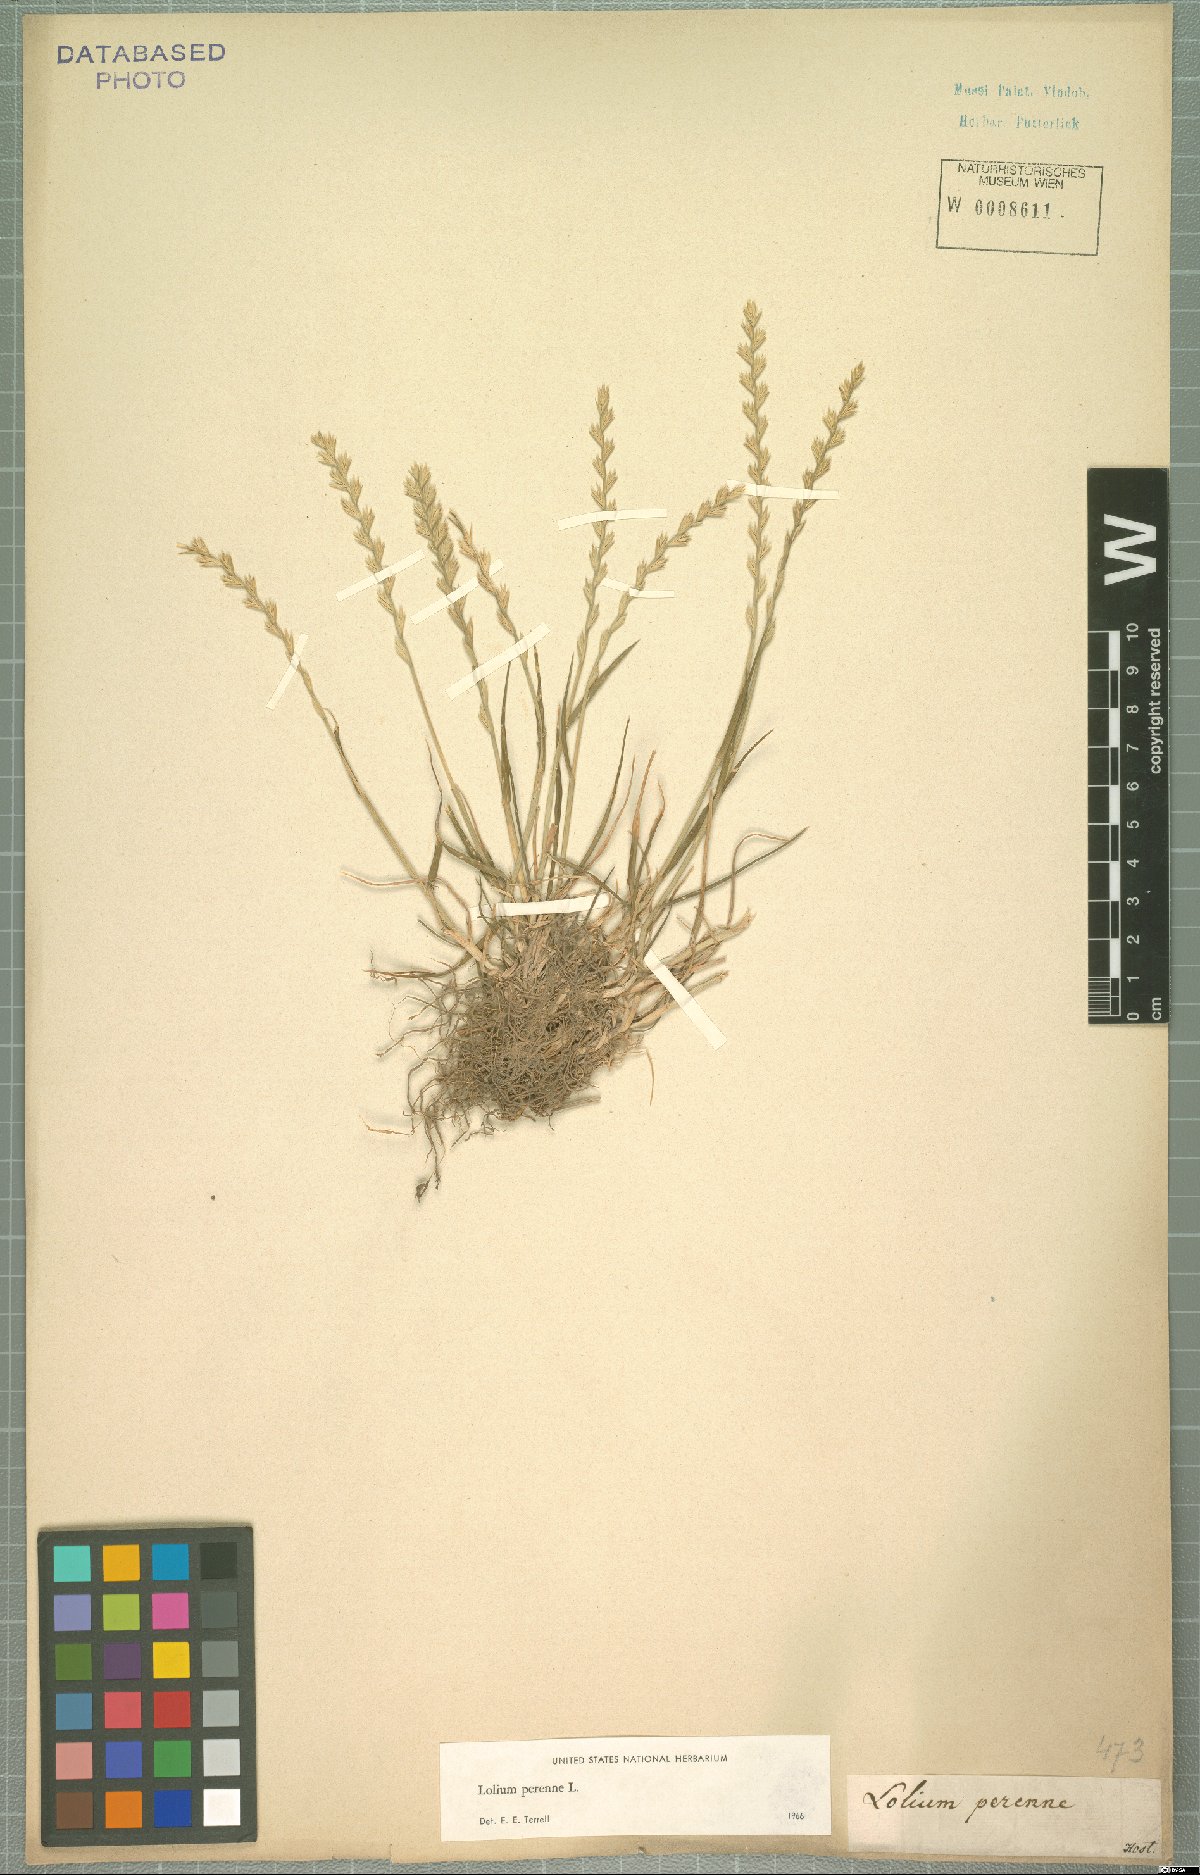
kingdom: Plantae
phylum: Tracheophyta
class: Liliopsida
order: Poales
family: Poaceae
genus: Lolium
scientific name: Lolium perenne
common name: Perennial ryegrass
